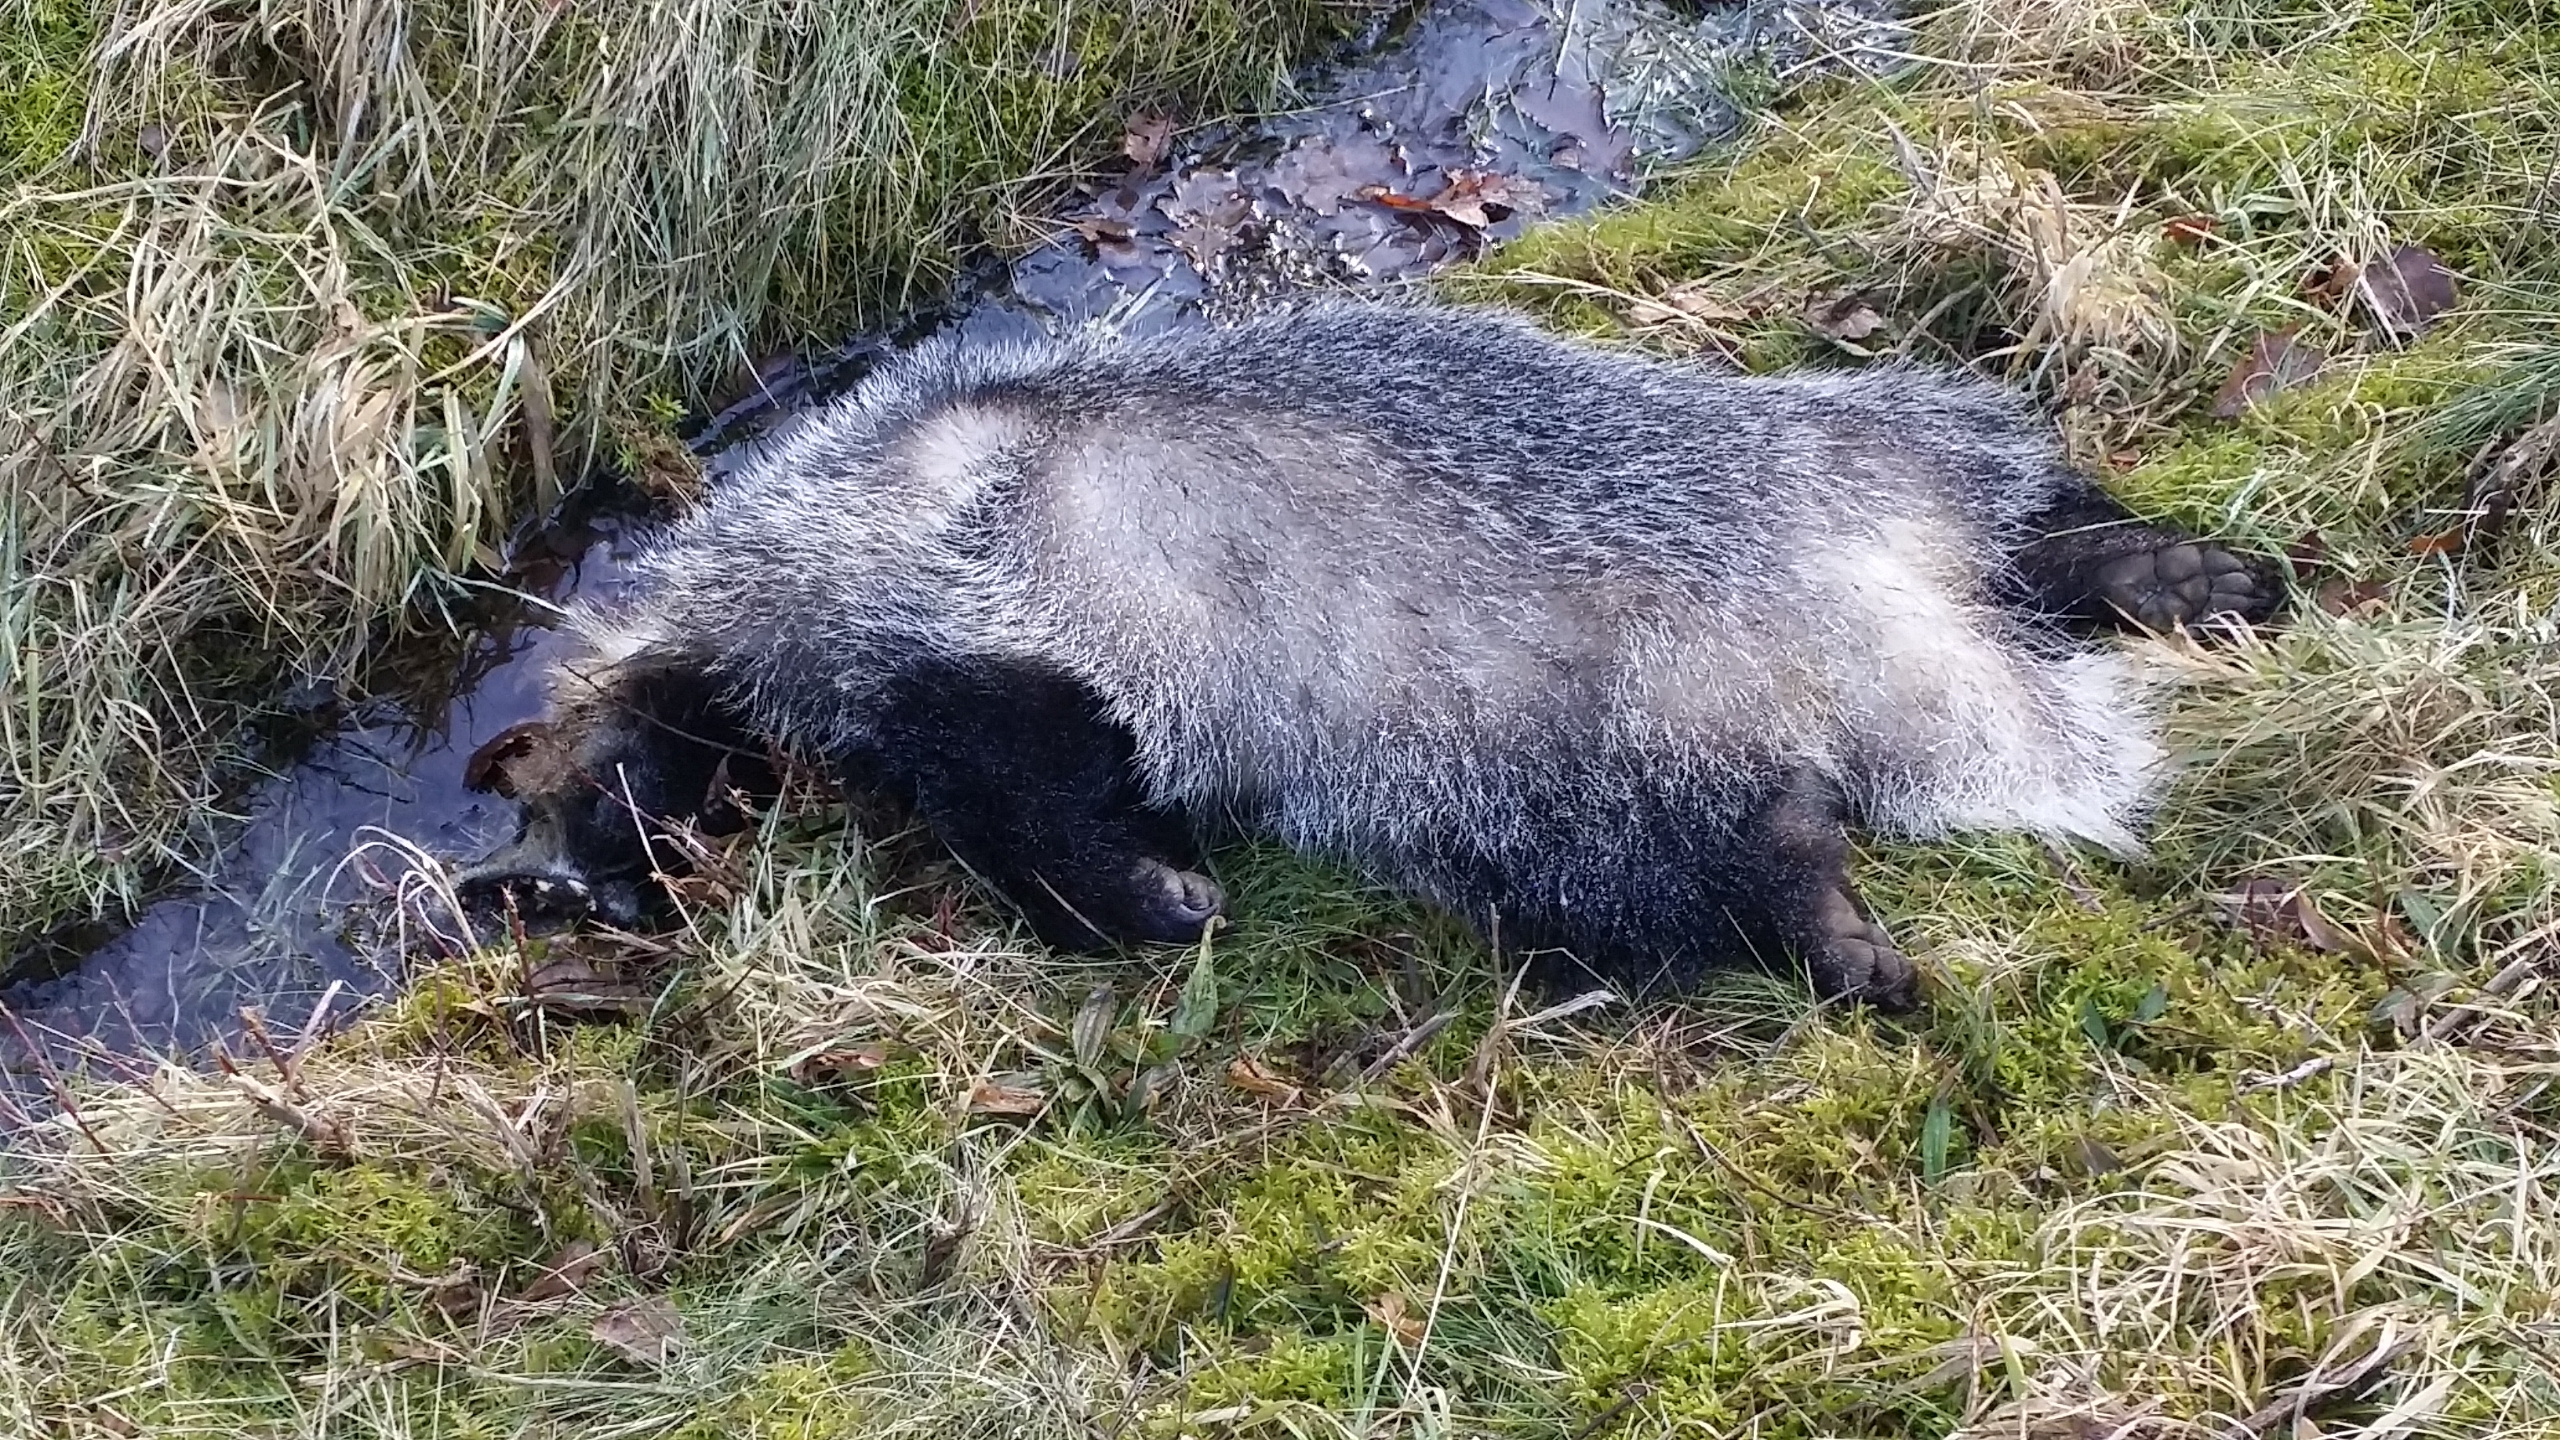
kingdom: Animalia
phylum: Chordata
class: Mammalia
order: Carnivora
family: Mustelidae
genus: Meles
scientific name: Meles meles
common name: Grævling
